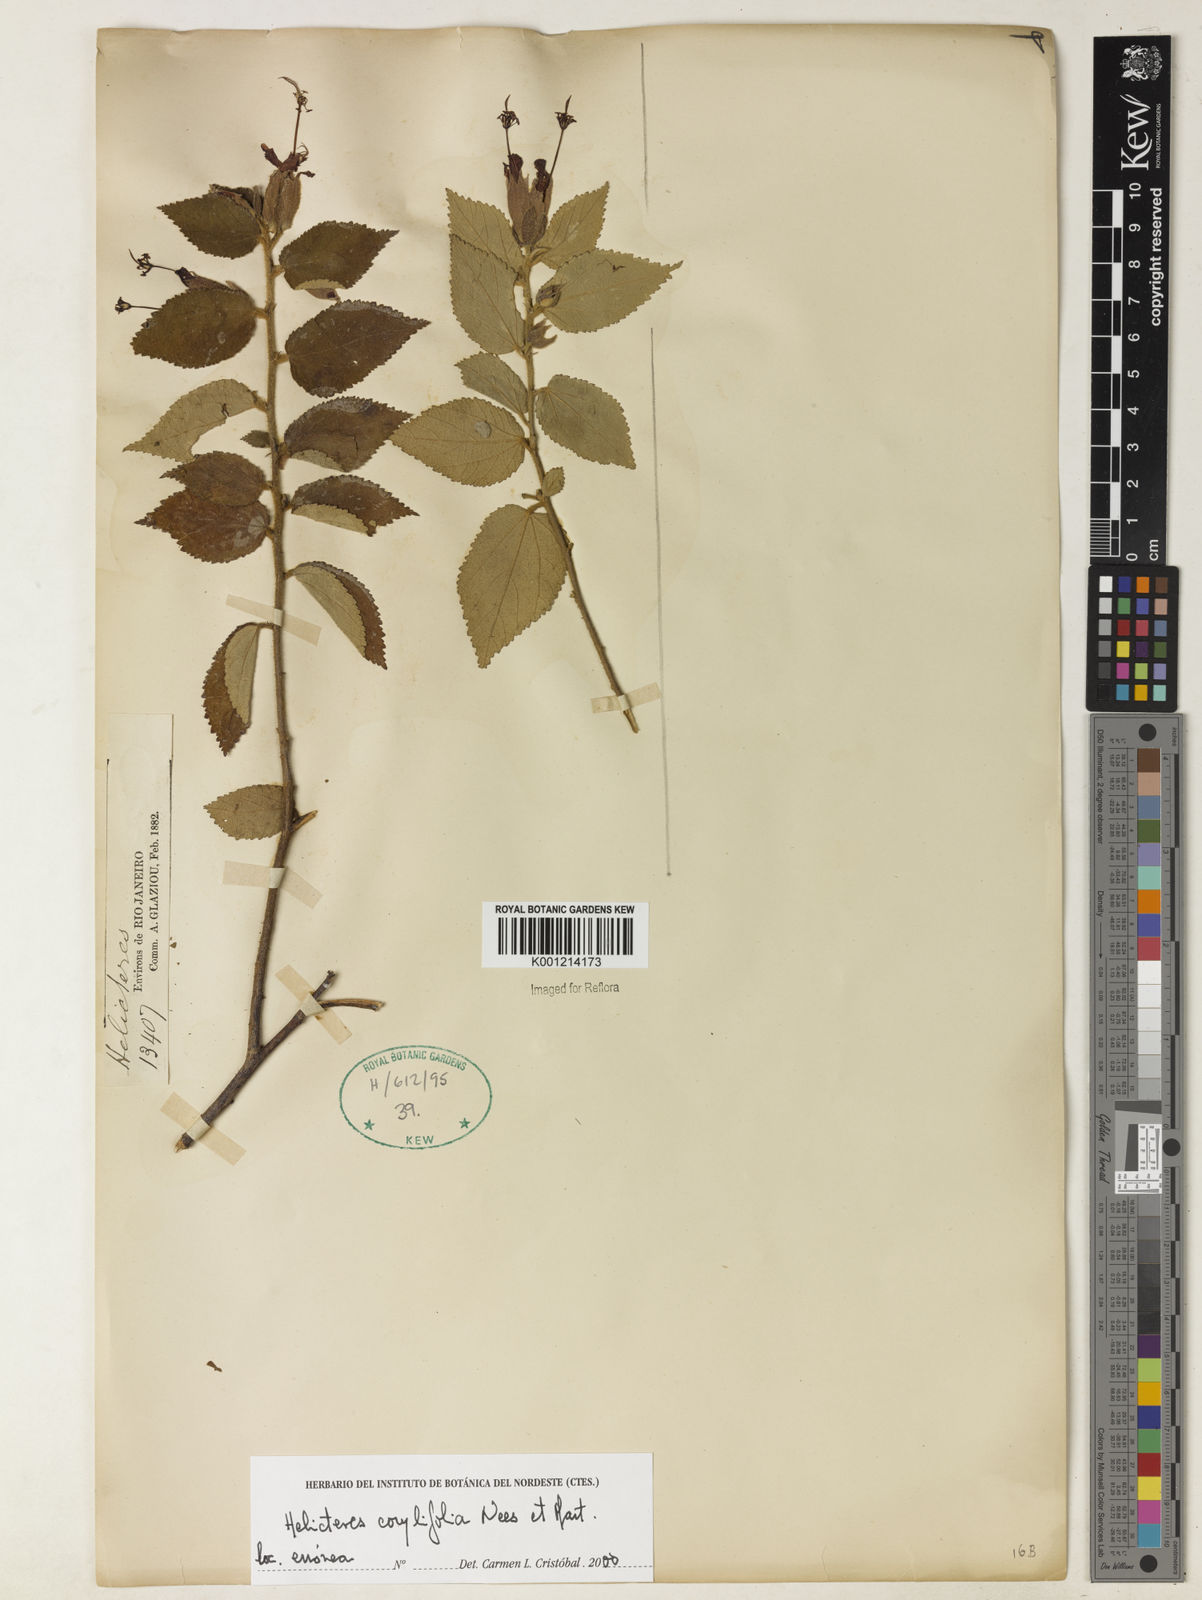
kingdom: Plantae
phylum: Tracheophyta
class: Magnoliopsida
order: Malvales
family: Malvaceae
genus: Helicteres
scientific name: Helicteres corylifolia
